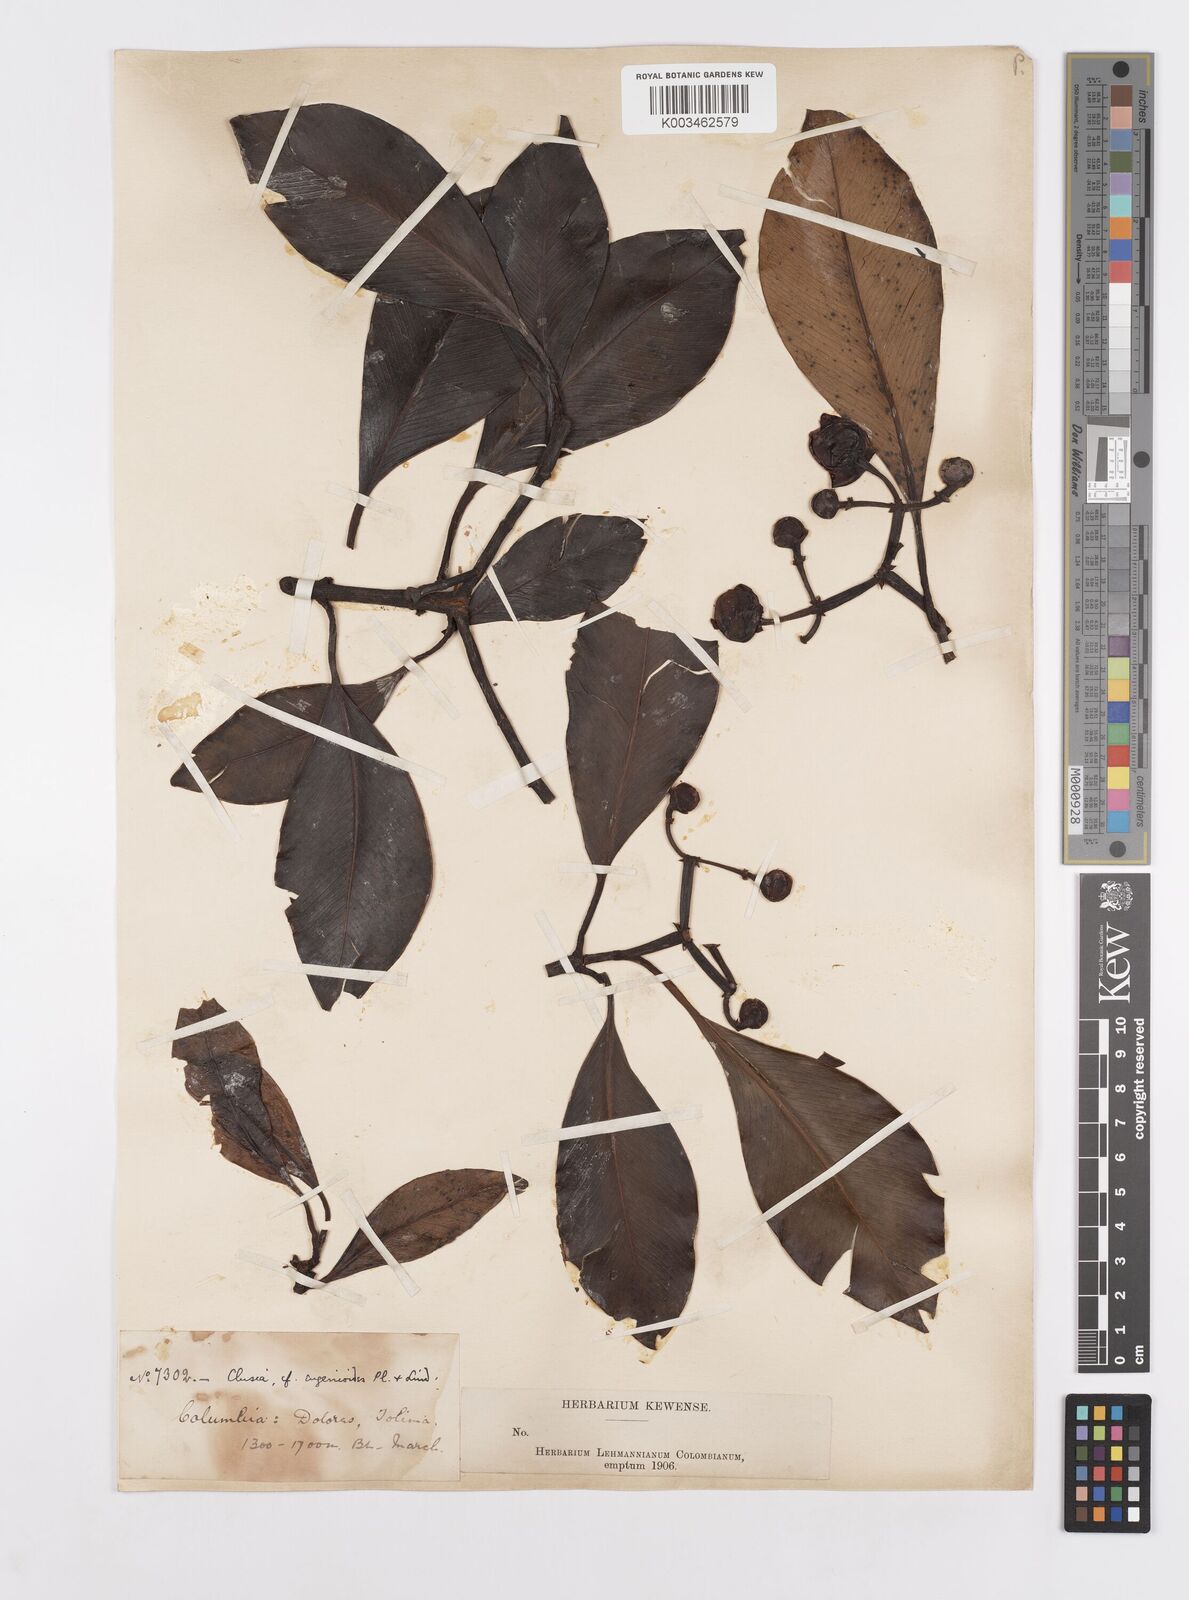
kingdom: Plantae
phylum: Tracheophyta
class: Magnoliopsida
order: Malpighiales
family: Clusiaceae
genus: Clusia
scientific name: Clusia eugenioides
